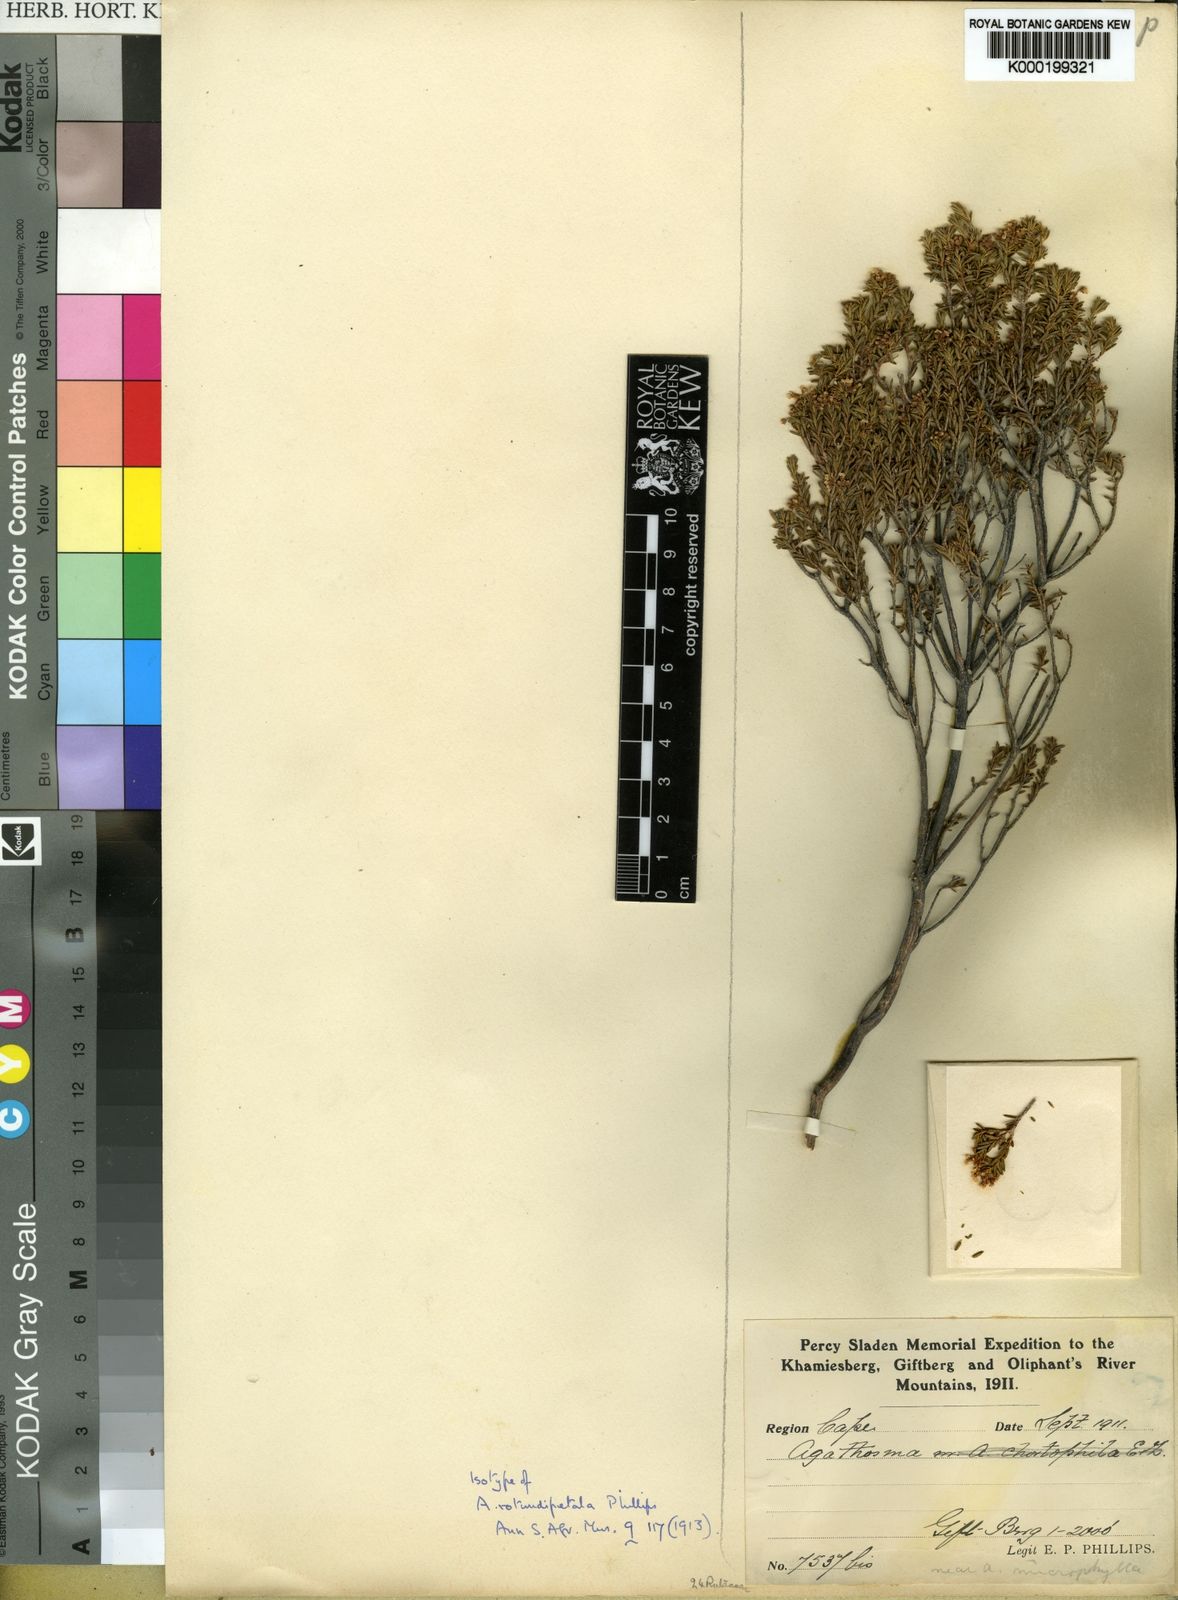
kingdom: Plantae
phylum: Tracheophyta
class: Magnoliopsida
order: Sapindales
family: Rutaceae
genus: Agathosma
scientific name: Agathosma giftbergensis
